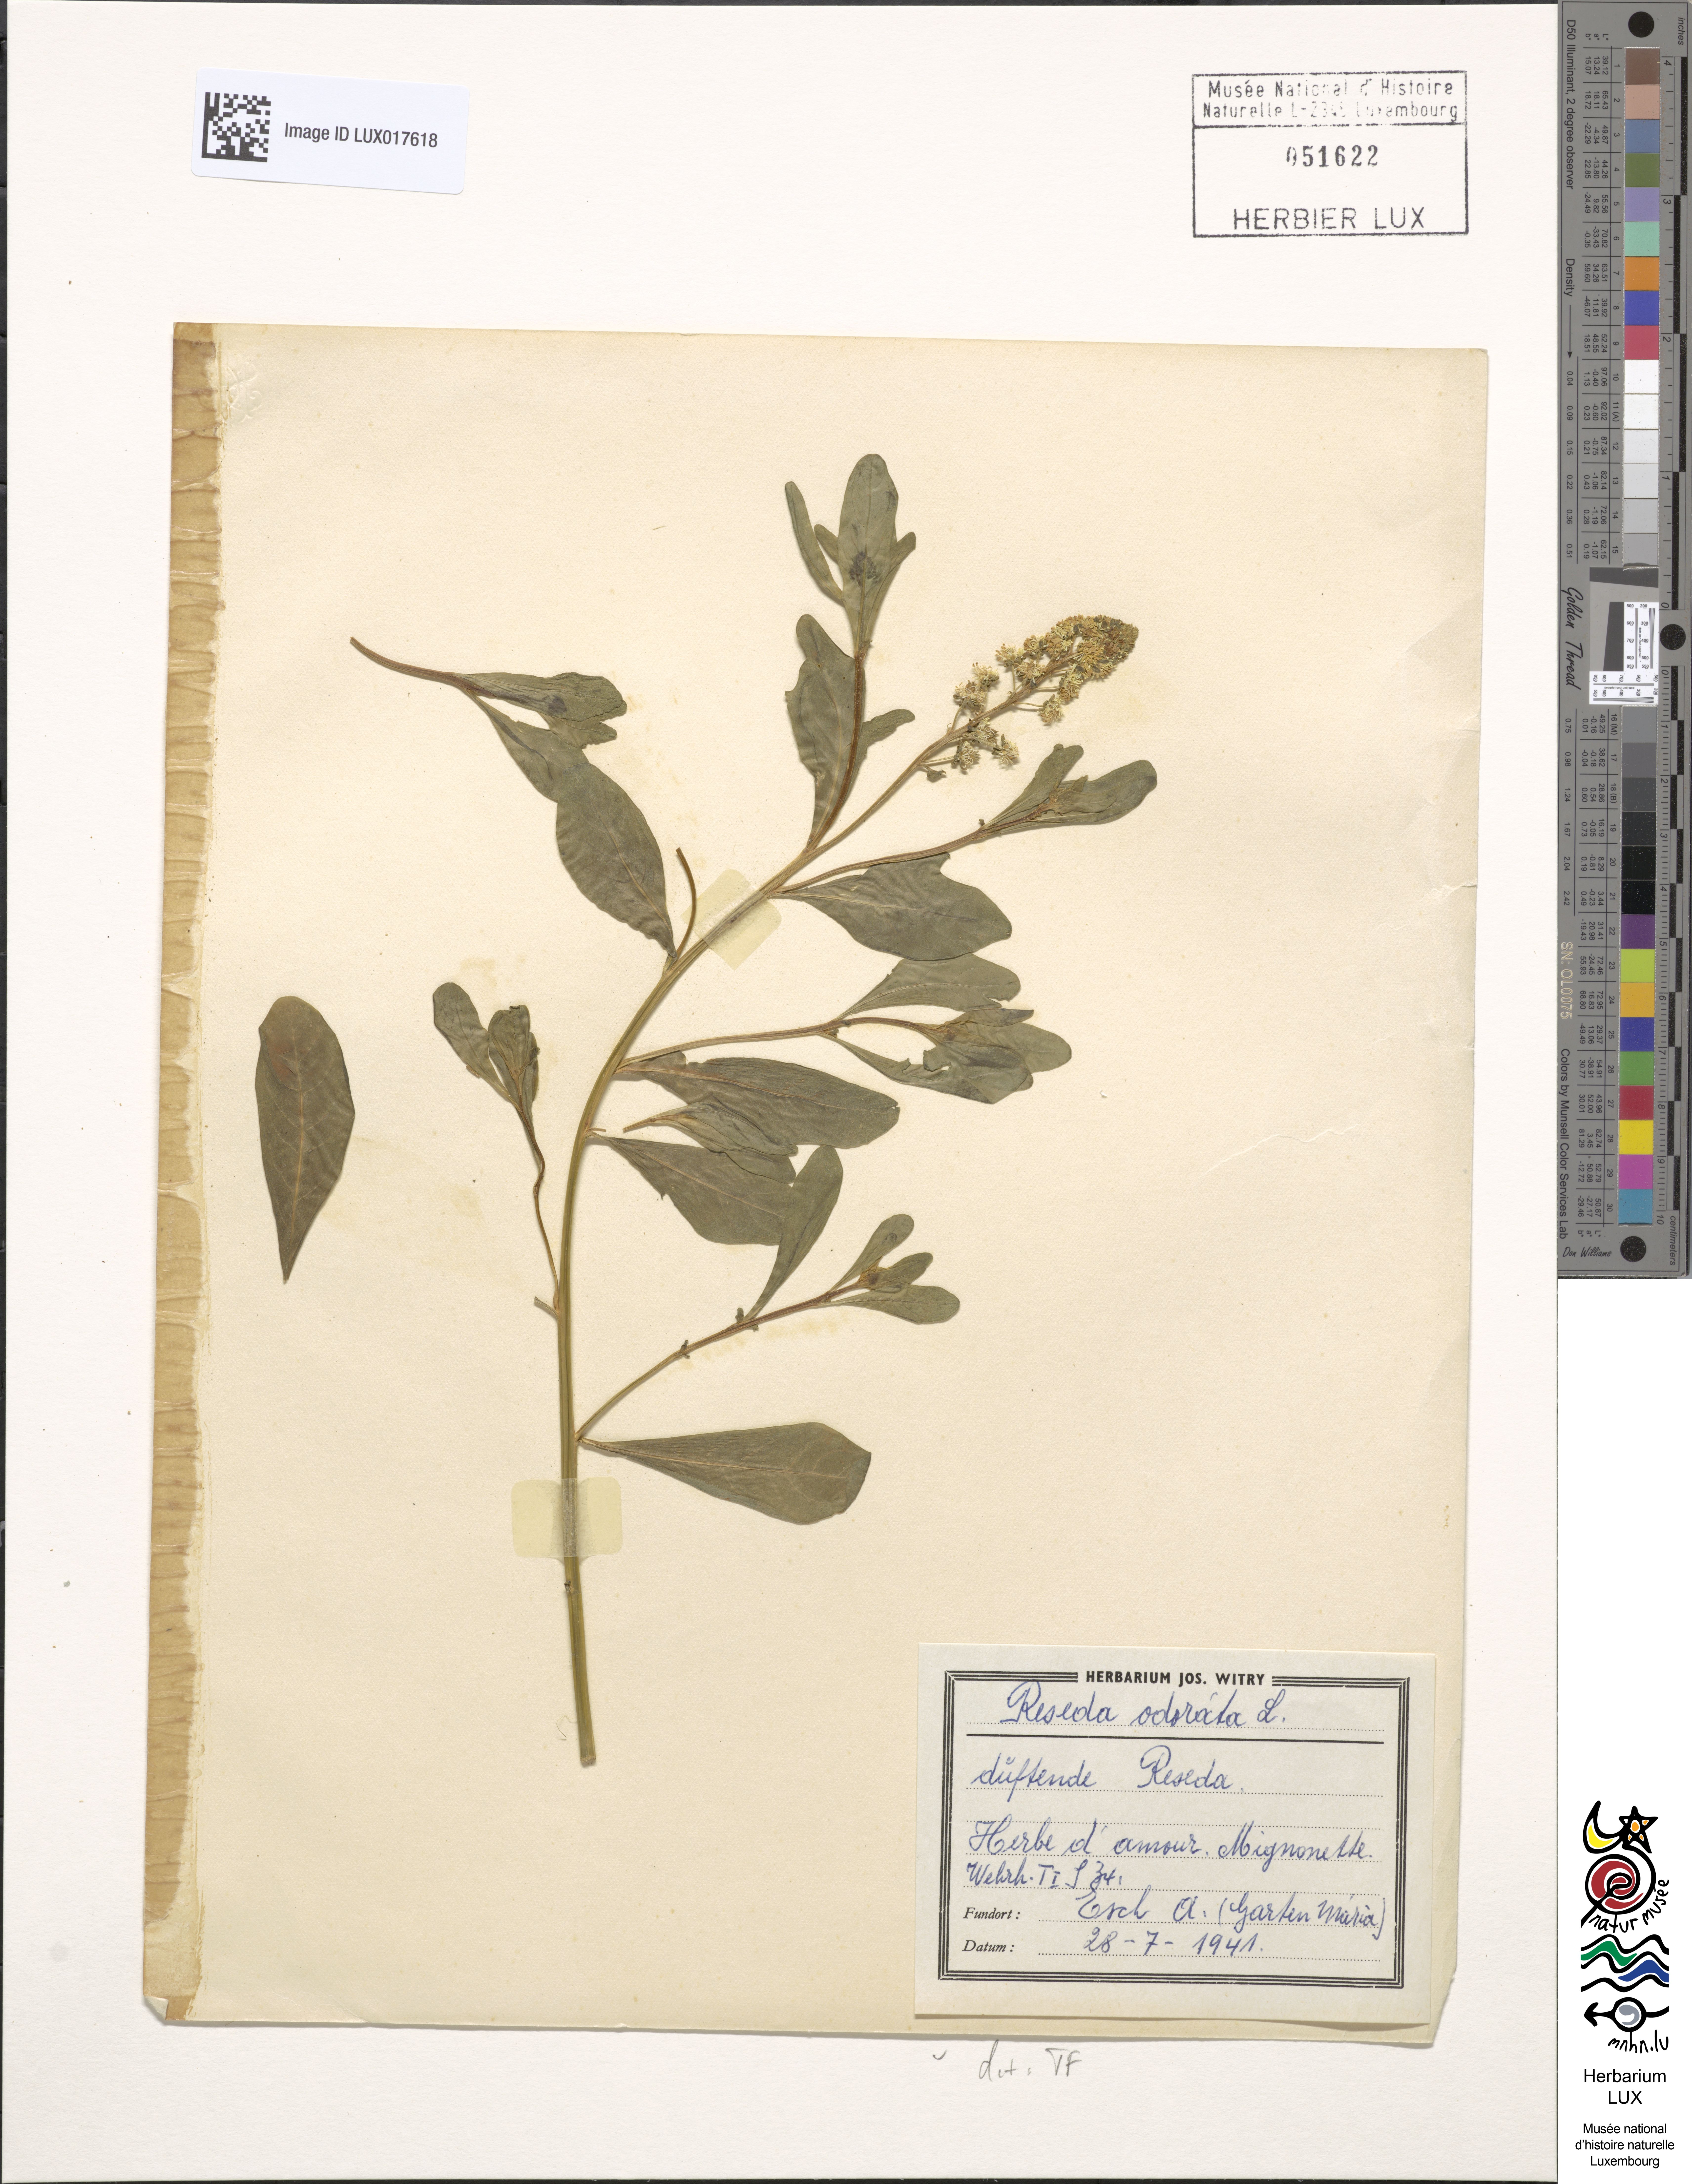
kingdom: Plantae
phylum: Tracheophyta
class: Magnoliopsida
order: Brassicales
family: Resedaceae
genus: Reseda
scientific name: Reseda odorata
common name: Garden mignonette
